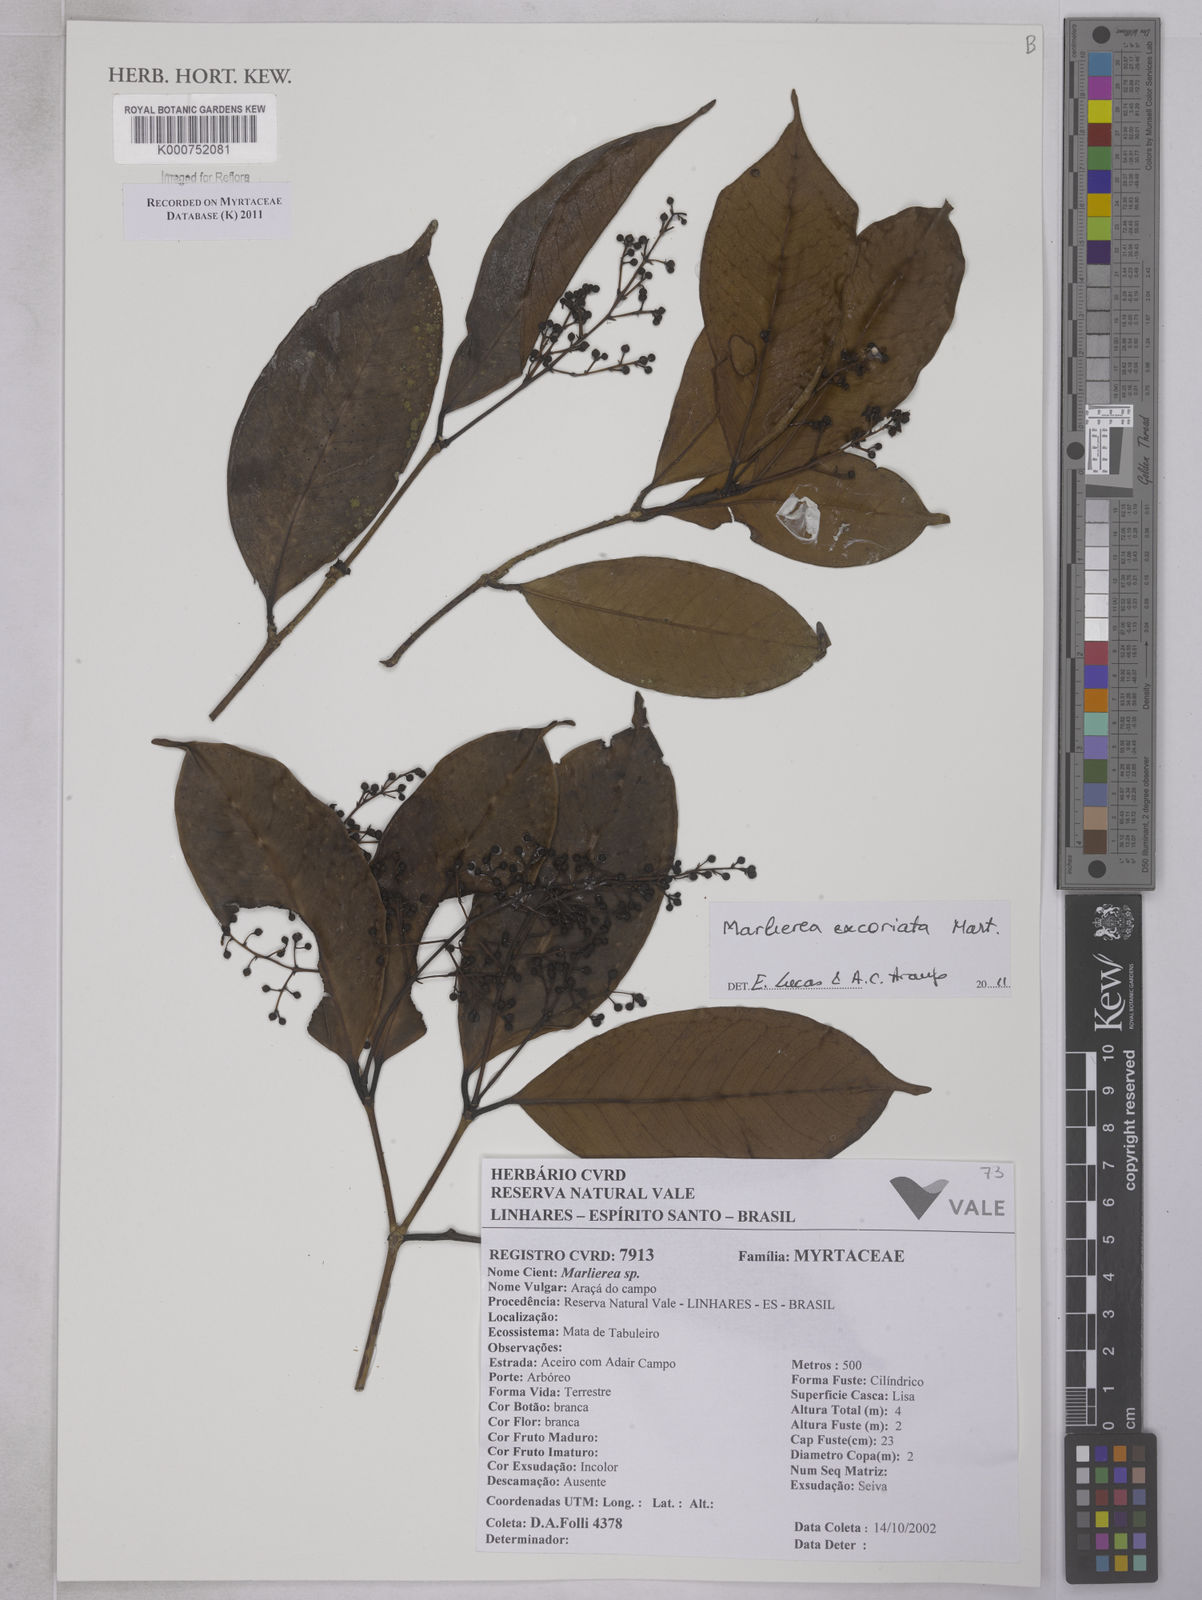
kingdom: Plantae
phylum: Tracheophyta
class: Magnoliopsida
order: Myrtales
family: Myrtaceae
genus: Myrcia
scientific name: Myrcia excoriata
